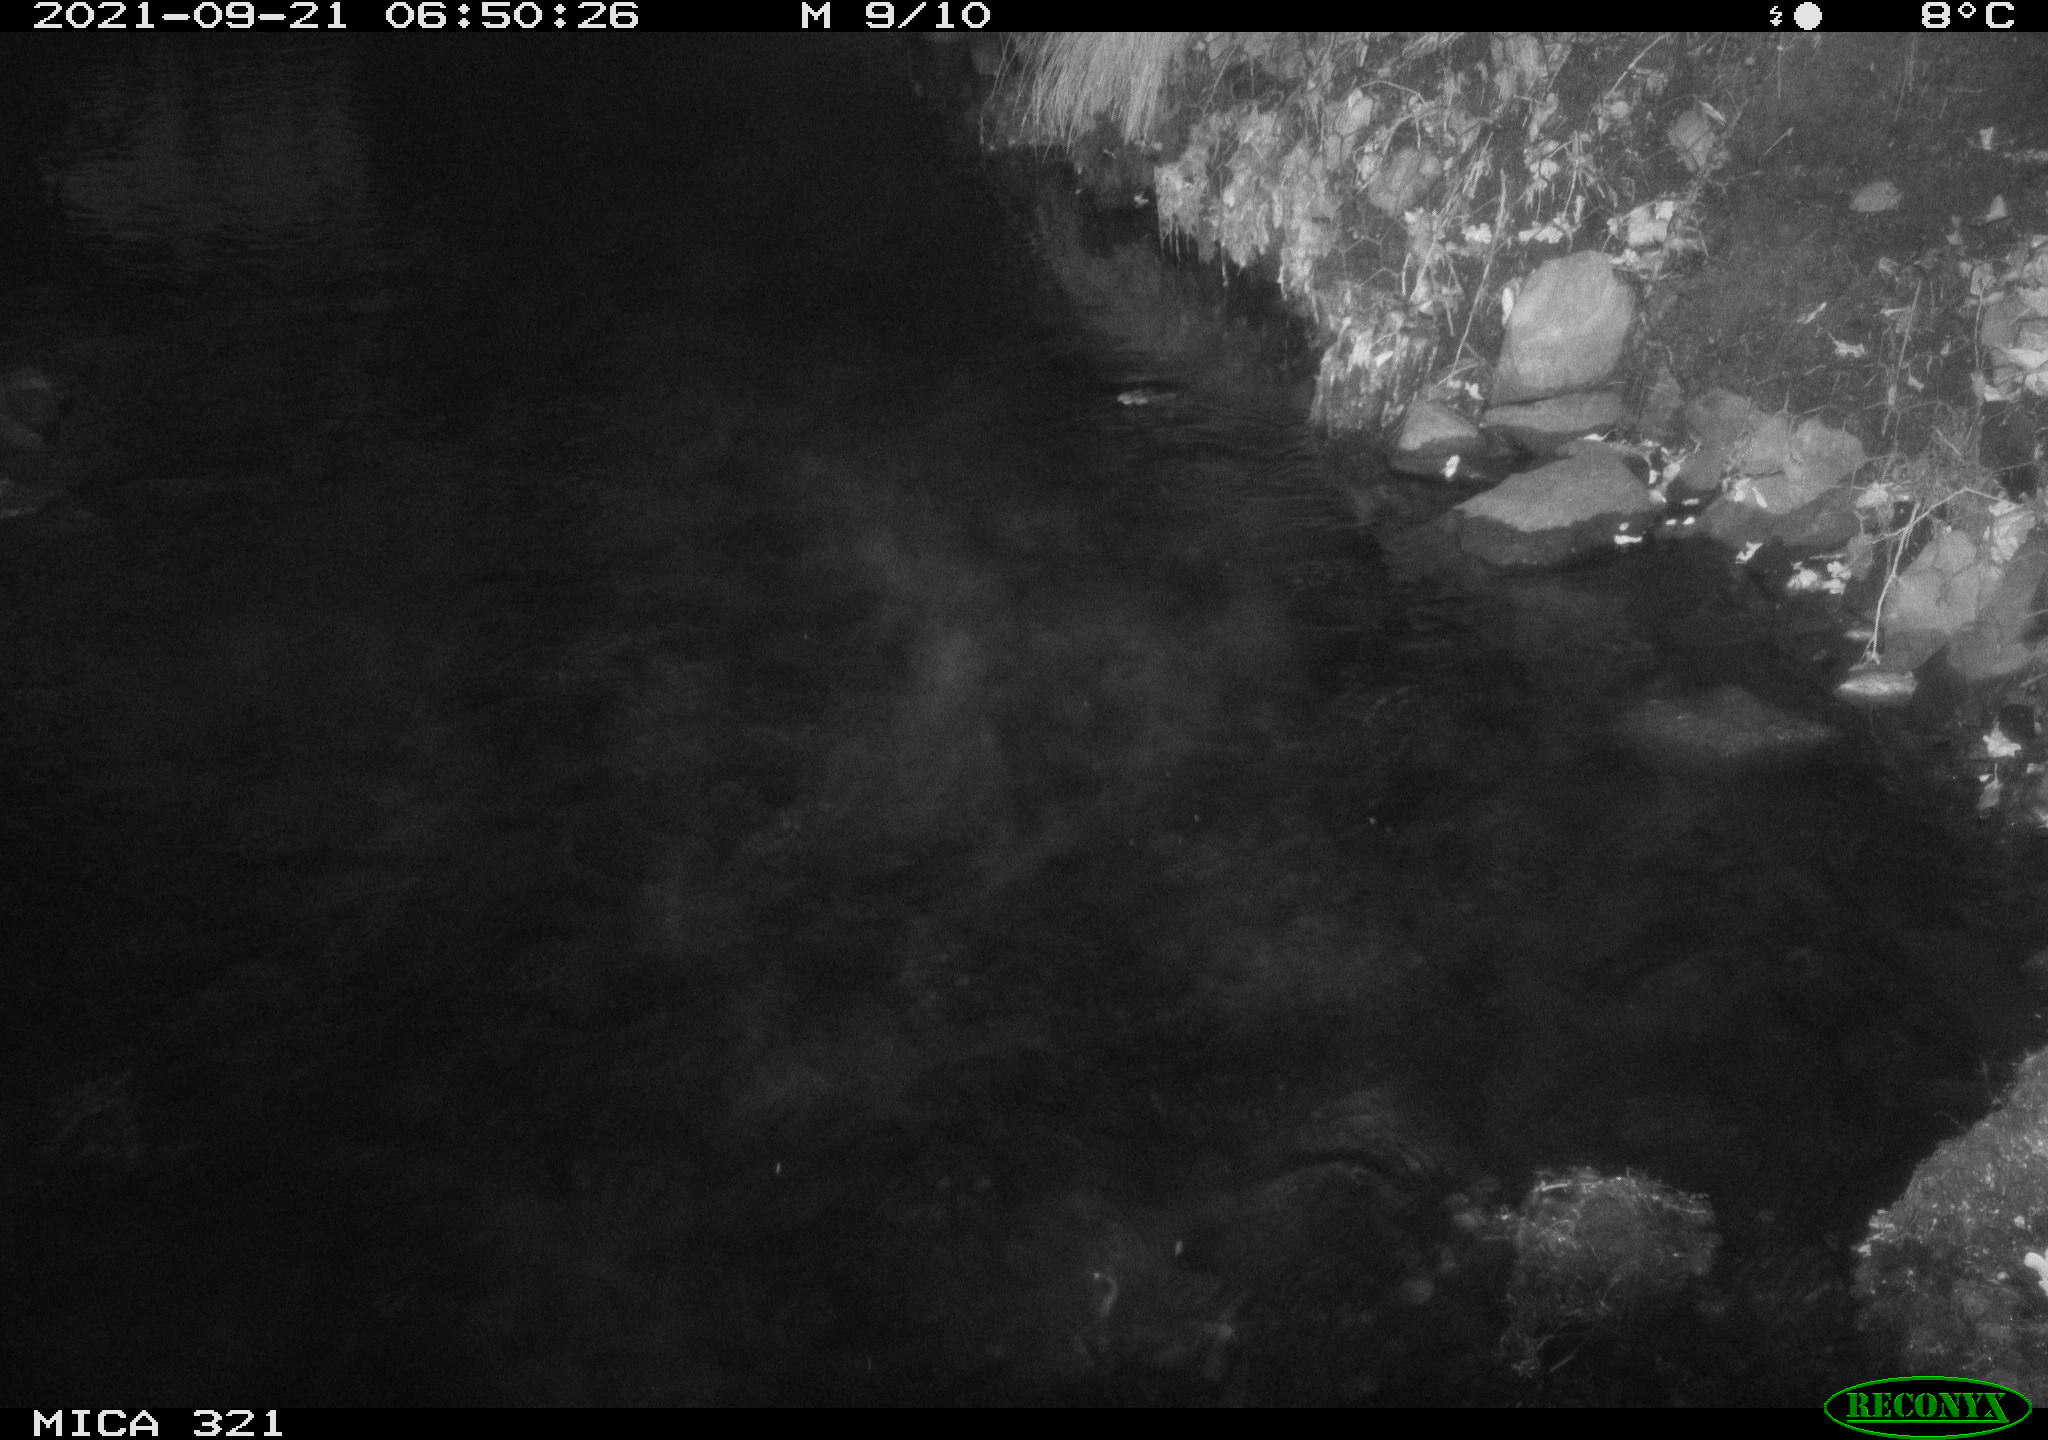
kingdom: Animalia
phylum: Chordata
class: Aves
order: Anseriformes
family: Anatidae
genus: Anas
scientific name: Anas platyrhynchos
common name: Mallard
